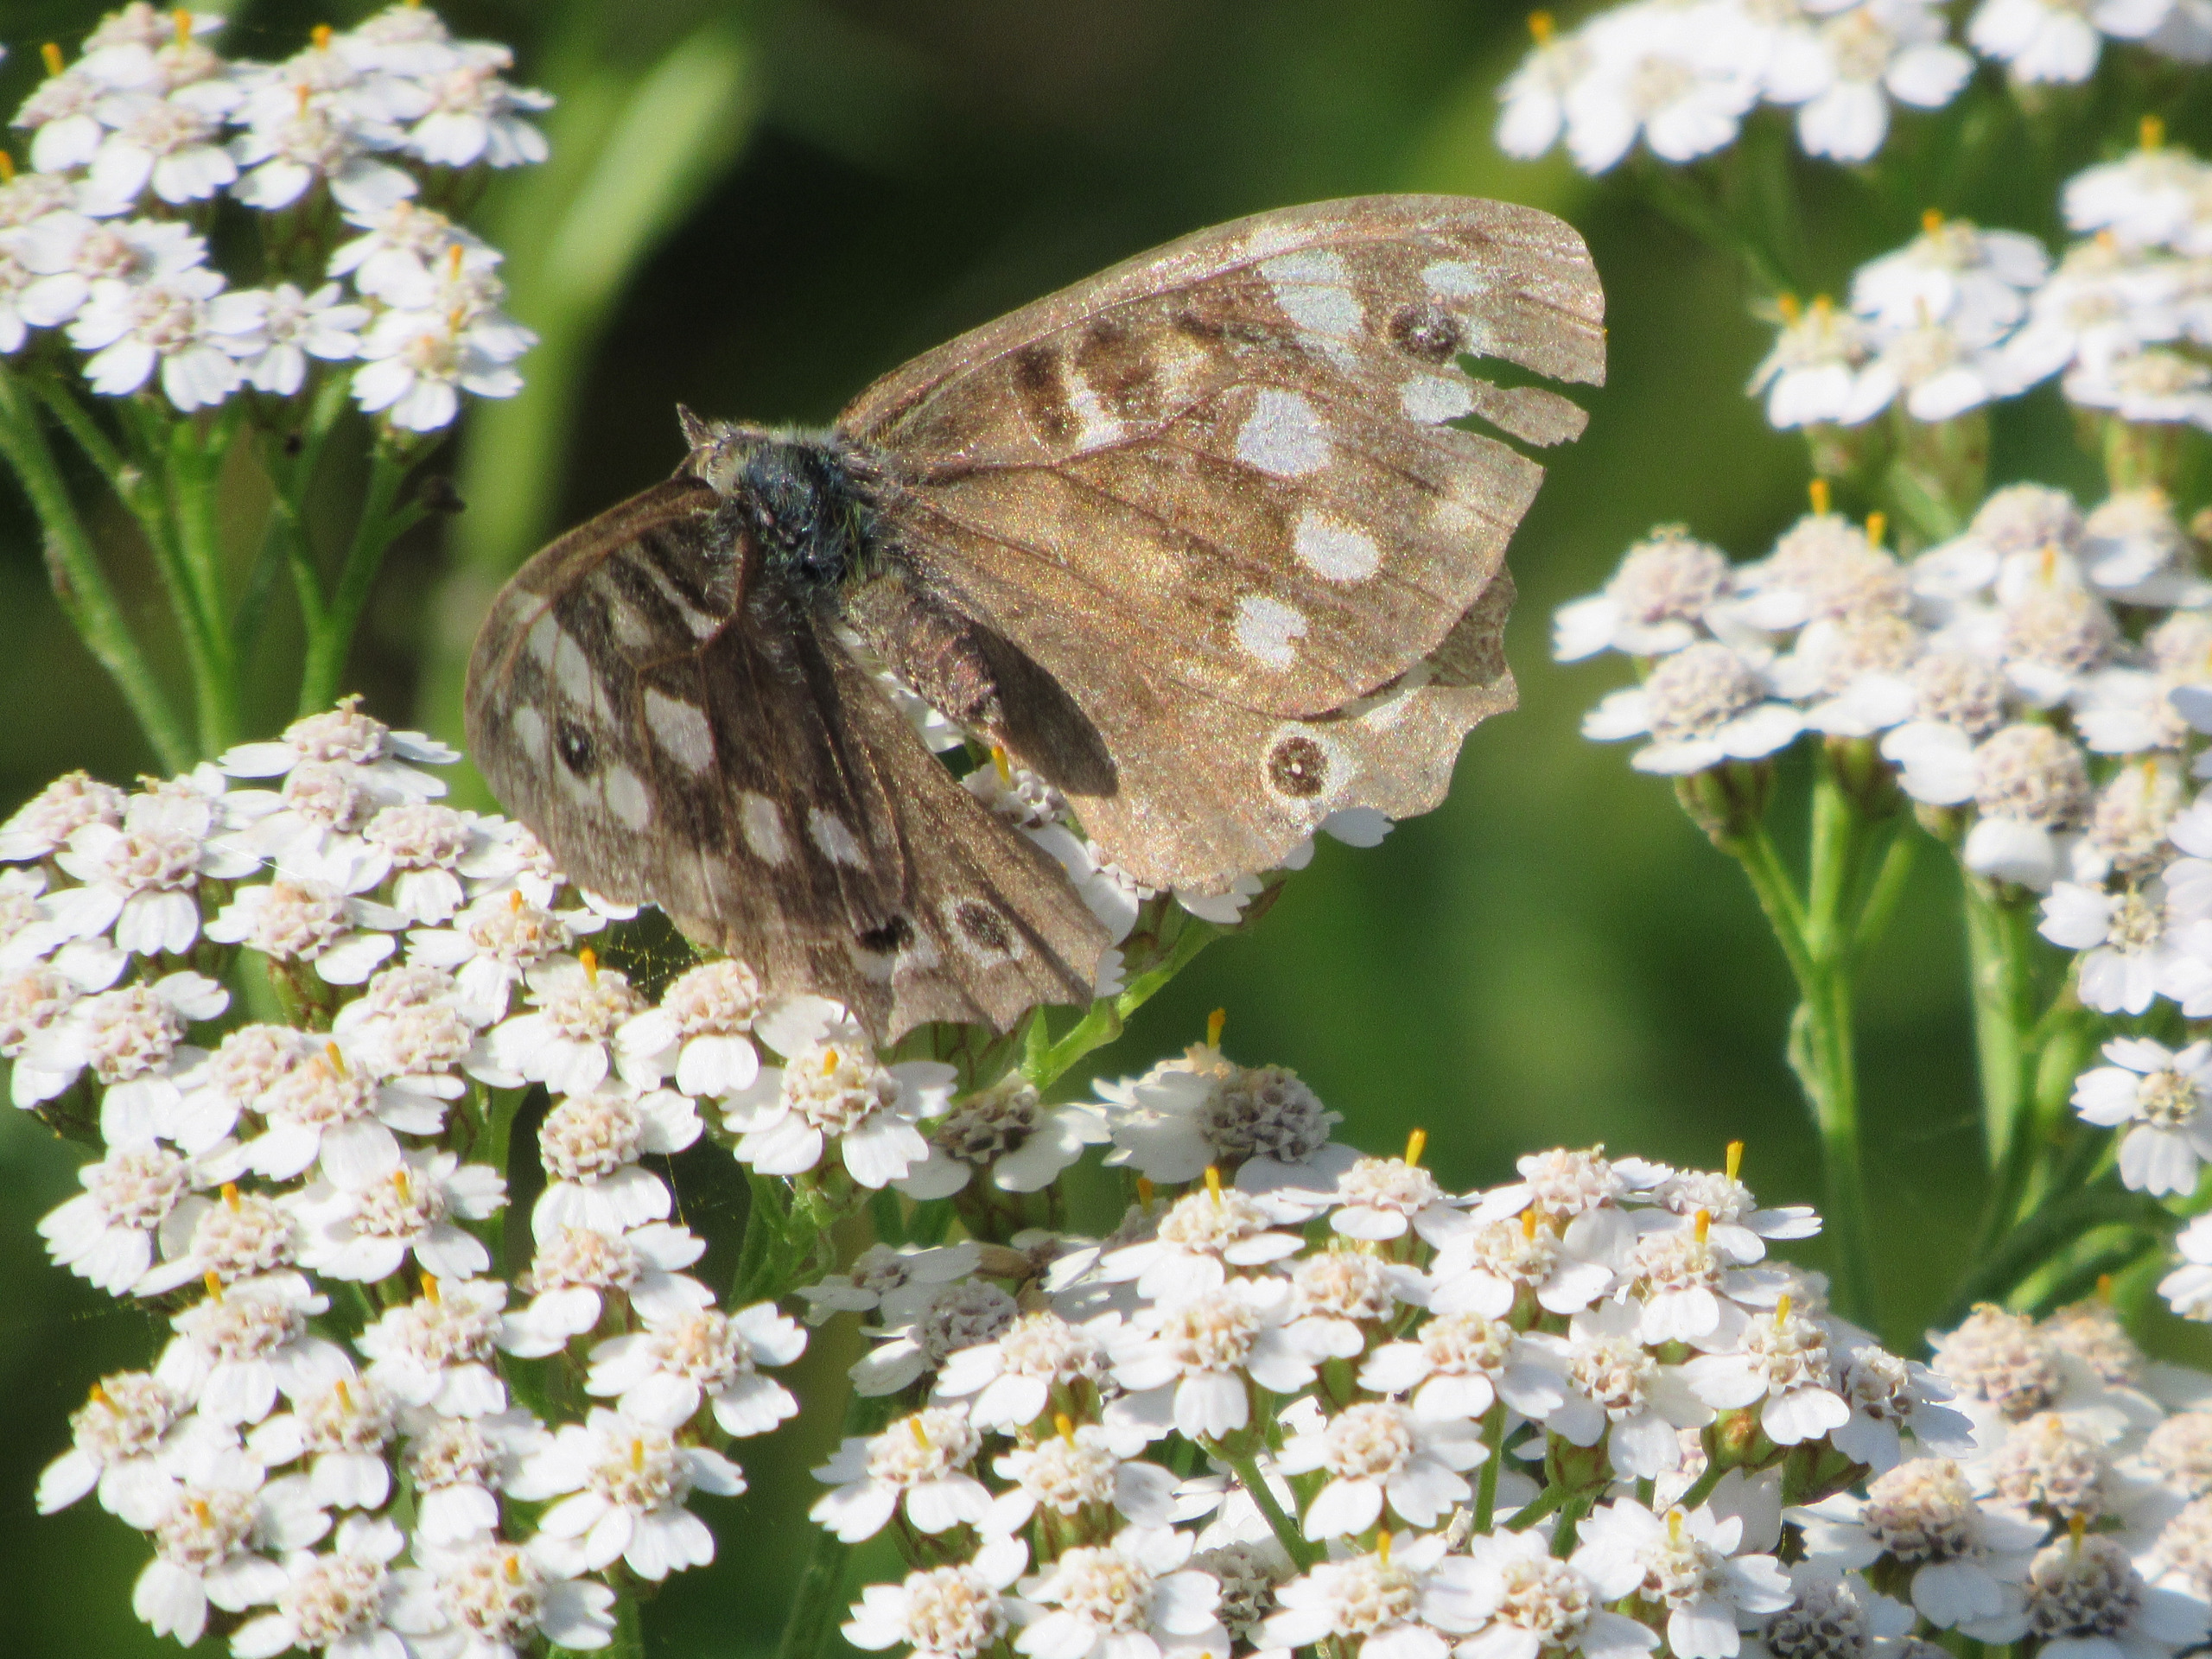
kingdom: Animalia
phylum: Arthropoda
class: Insecta
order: Lepidoptera
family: Nymphalidae
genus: Pararge
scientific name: Pararge aegeria
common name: Skovrandøje
